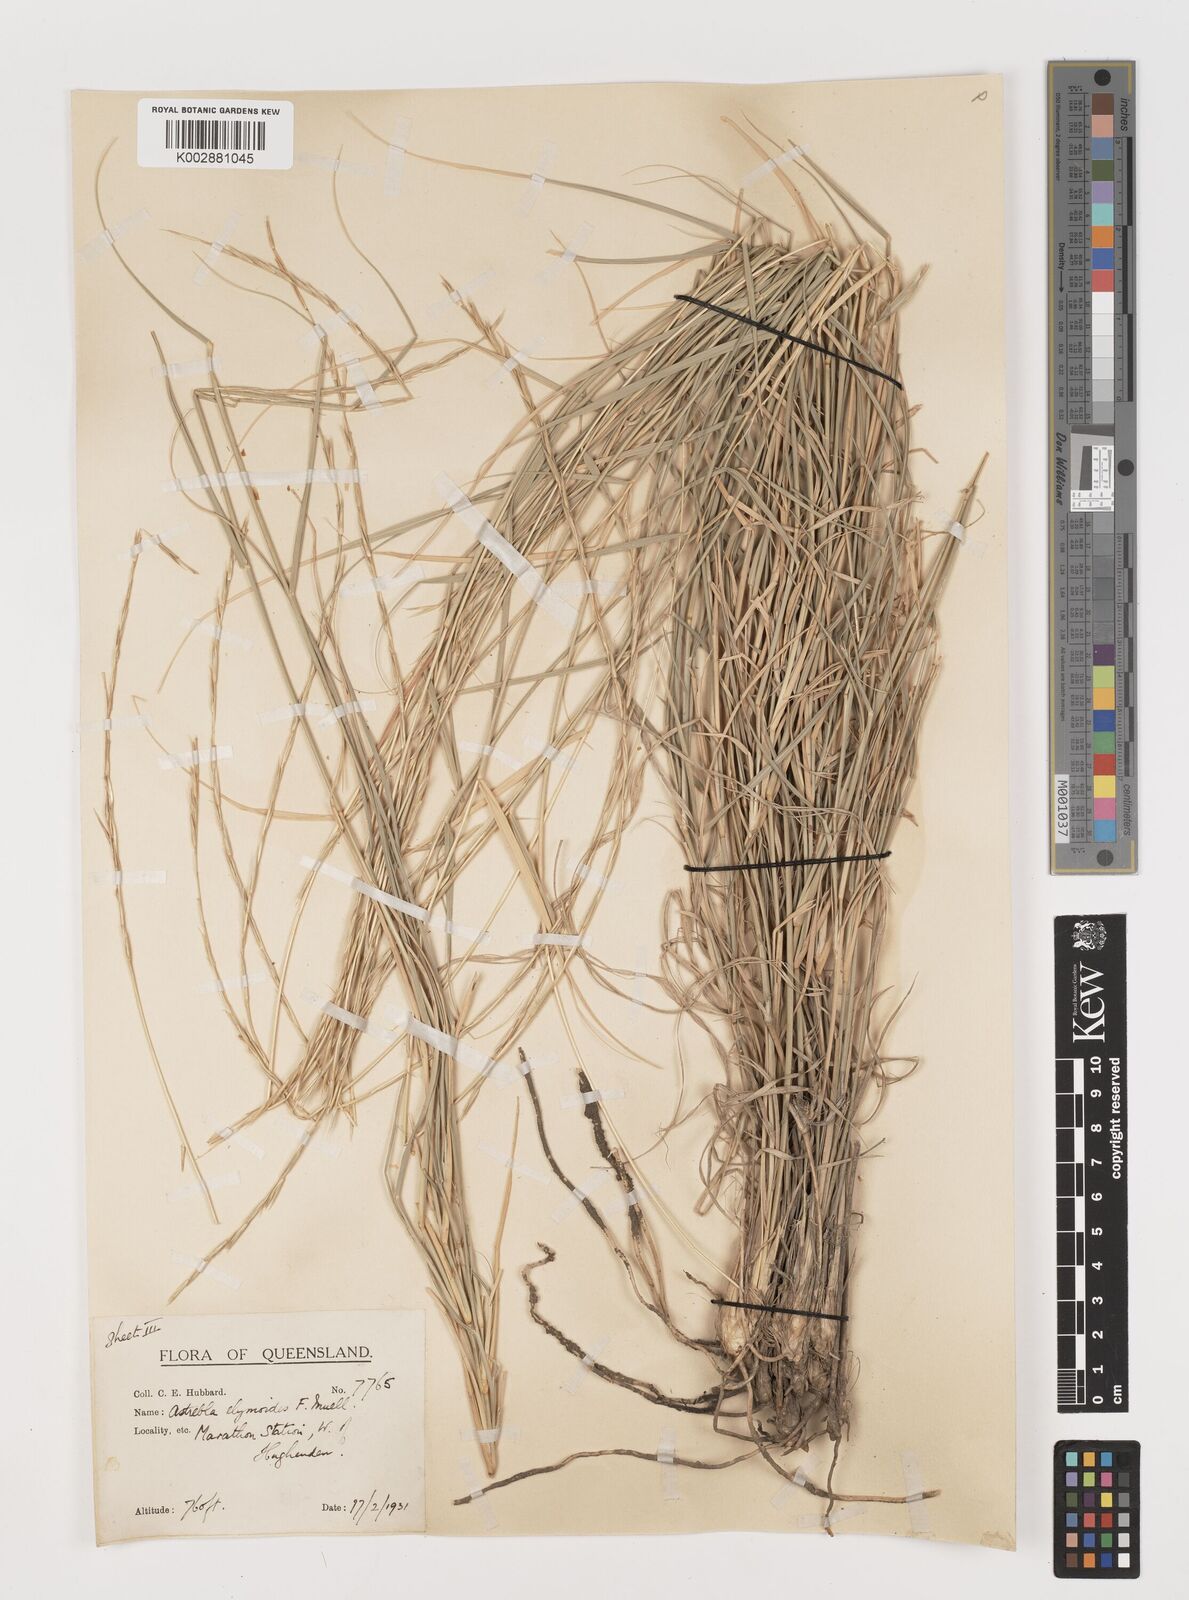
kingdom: Plantae
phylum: Tracheophyta
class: Liliopsida
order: Poales
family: Poaceae
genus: Astrebla
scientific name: Astrebla elymoides
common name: Hoop mitchell grass
